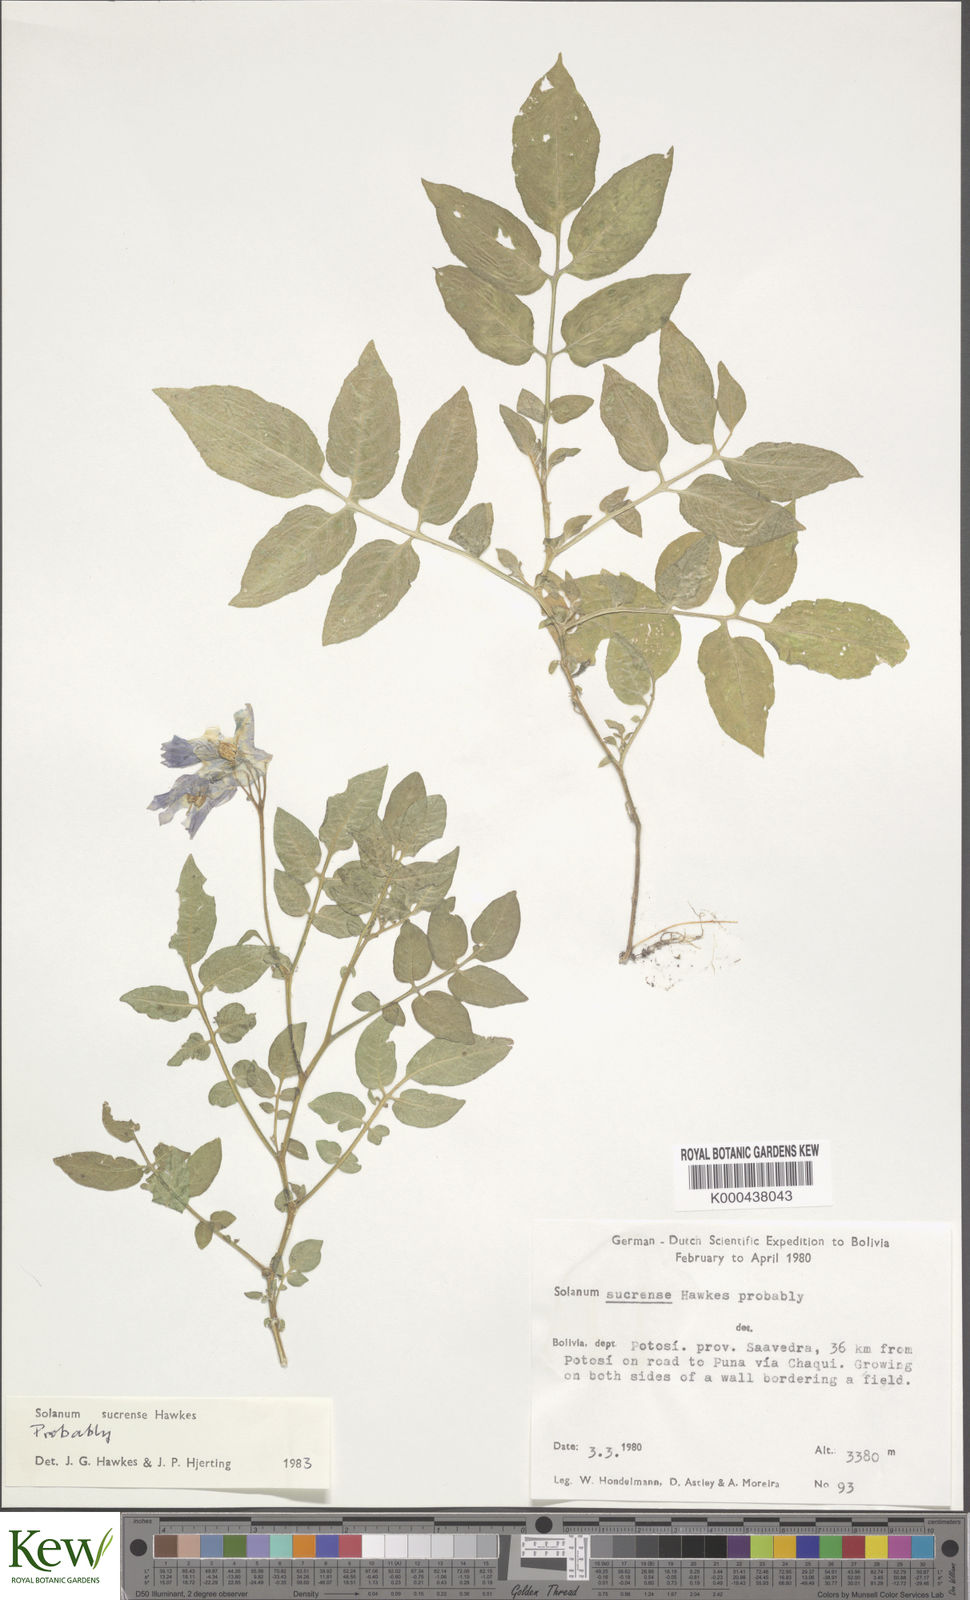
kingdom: Plantae
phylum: Tracheophyta
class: Magnoliopsida
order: Solanales
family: Solanaceae
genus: Solanum
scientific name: Solanum brevicaule
